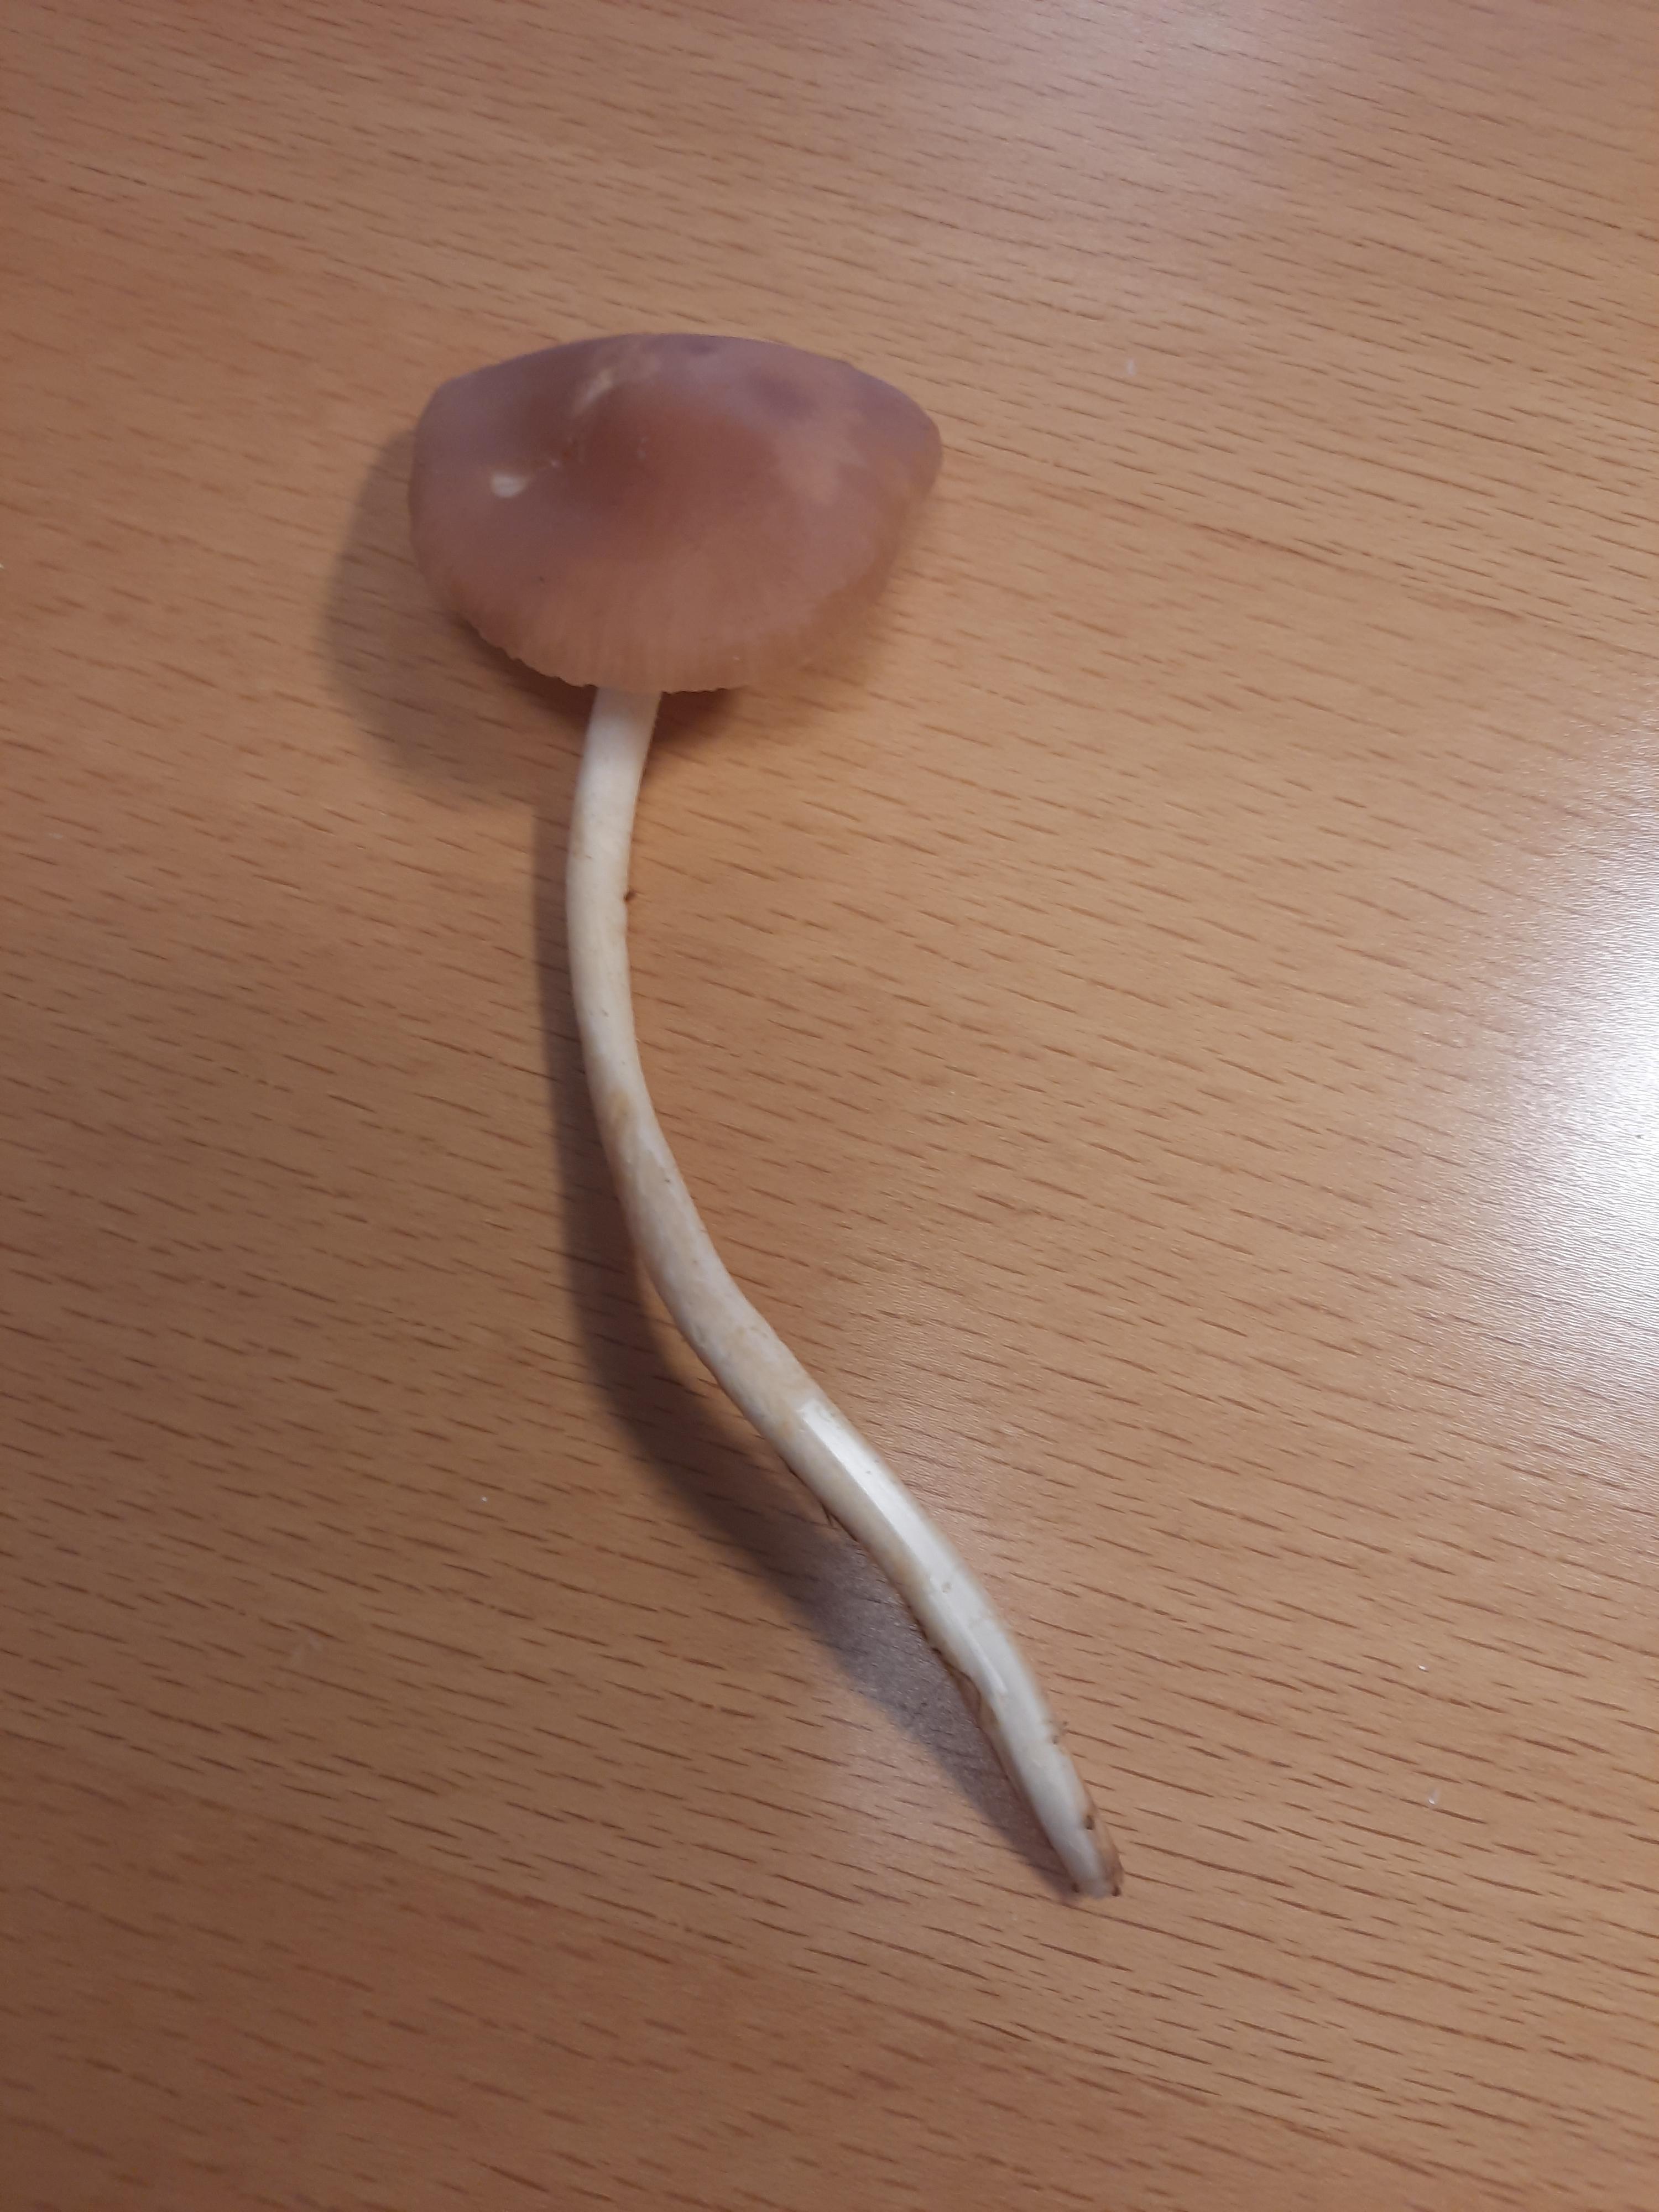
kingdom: Fungi
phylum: Basidiomycota
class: Agaricomycetes
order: Agaricales
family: Marasmiaceae
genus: Marasmius
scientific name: Marasmius oreades
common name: elledans-bruskhat
